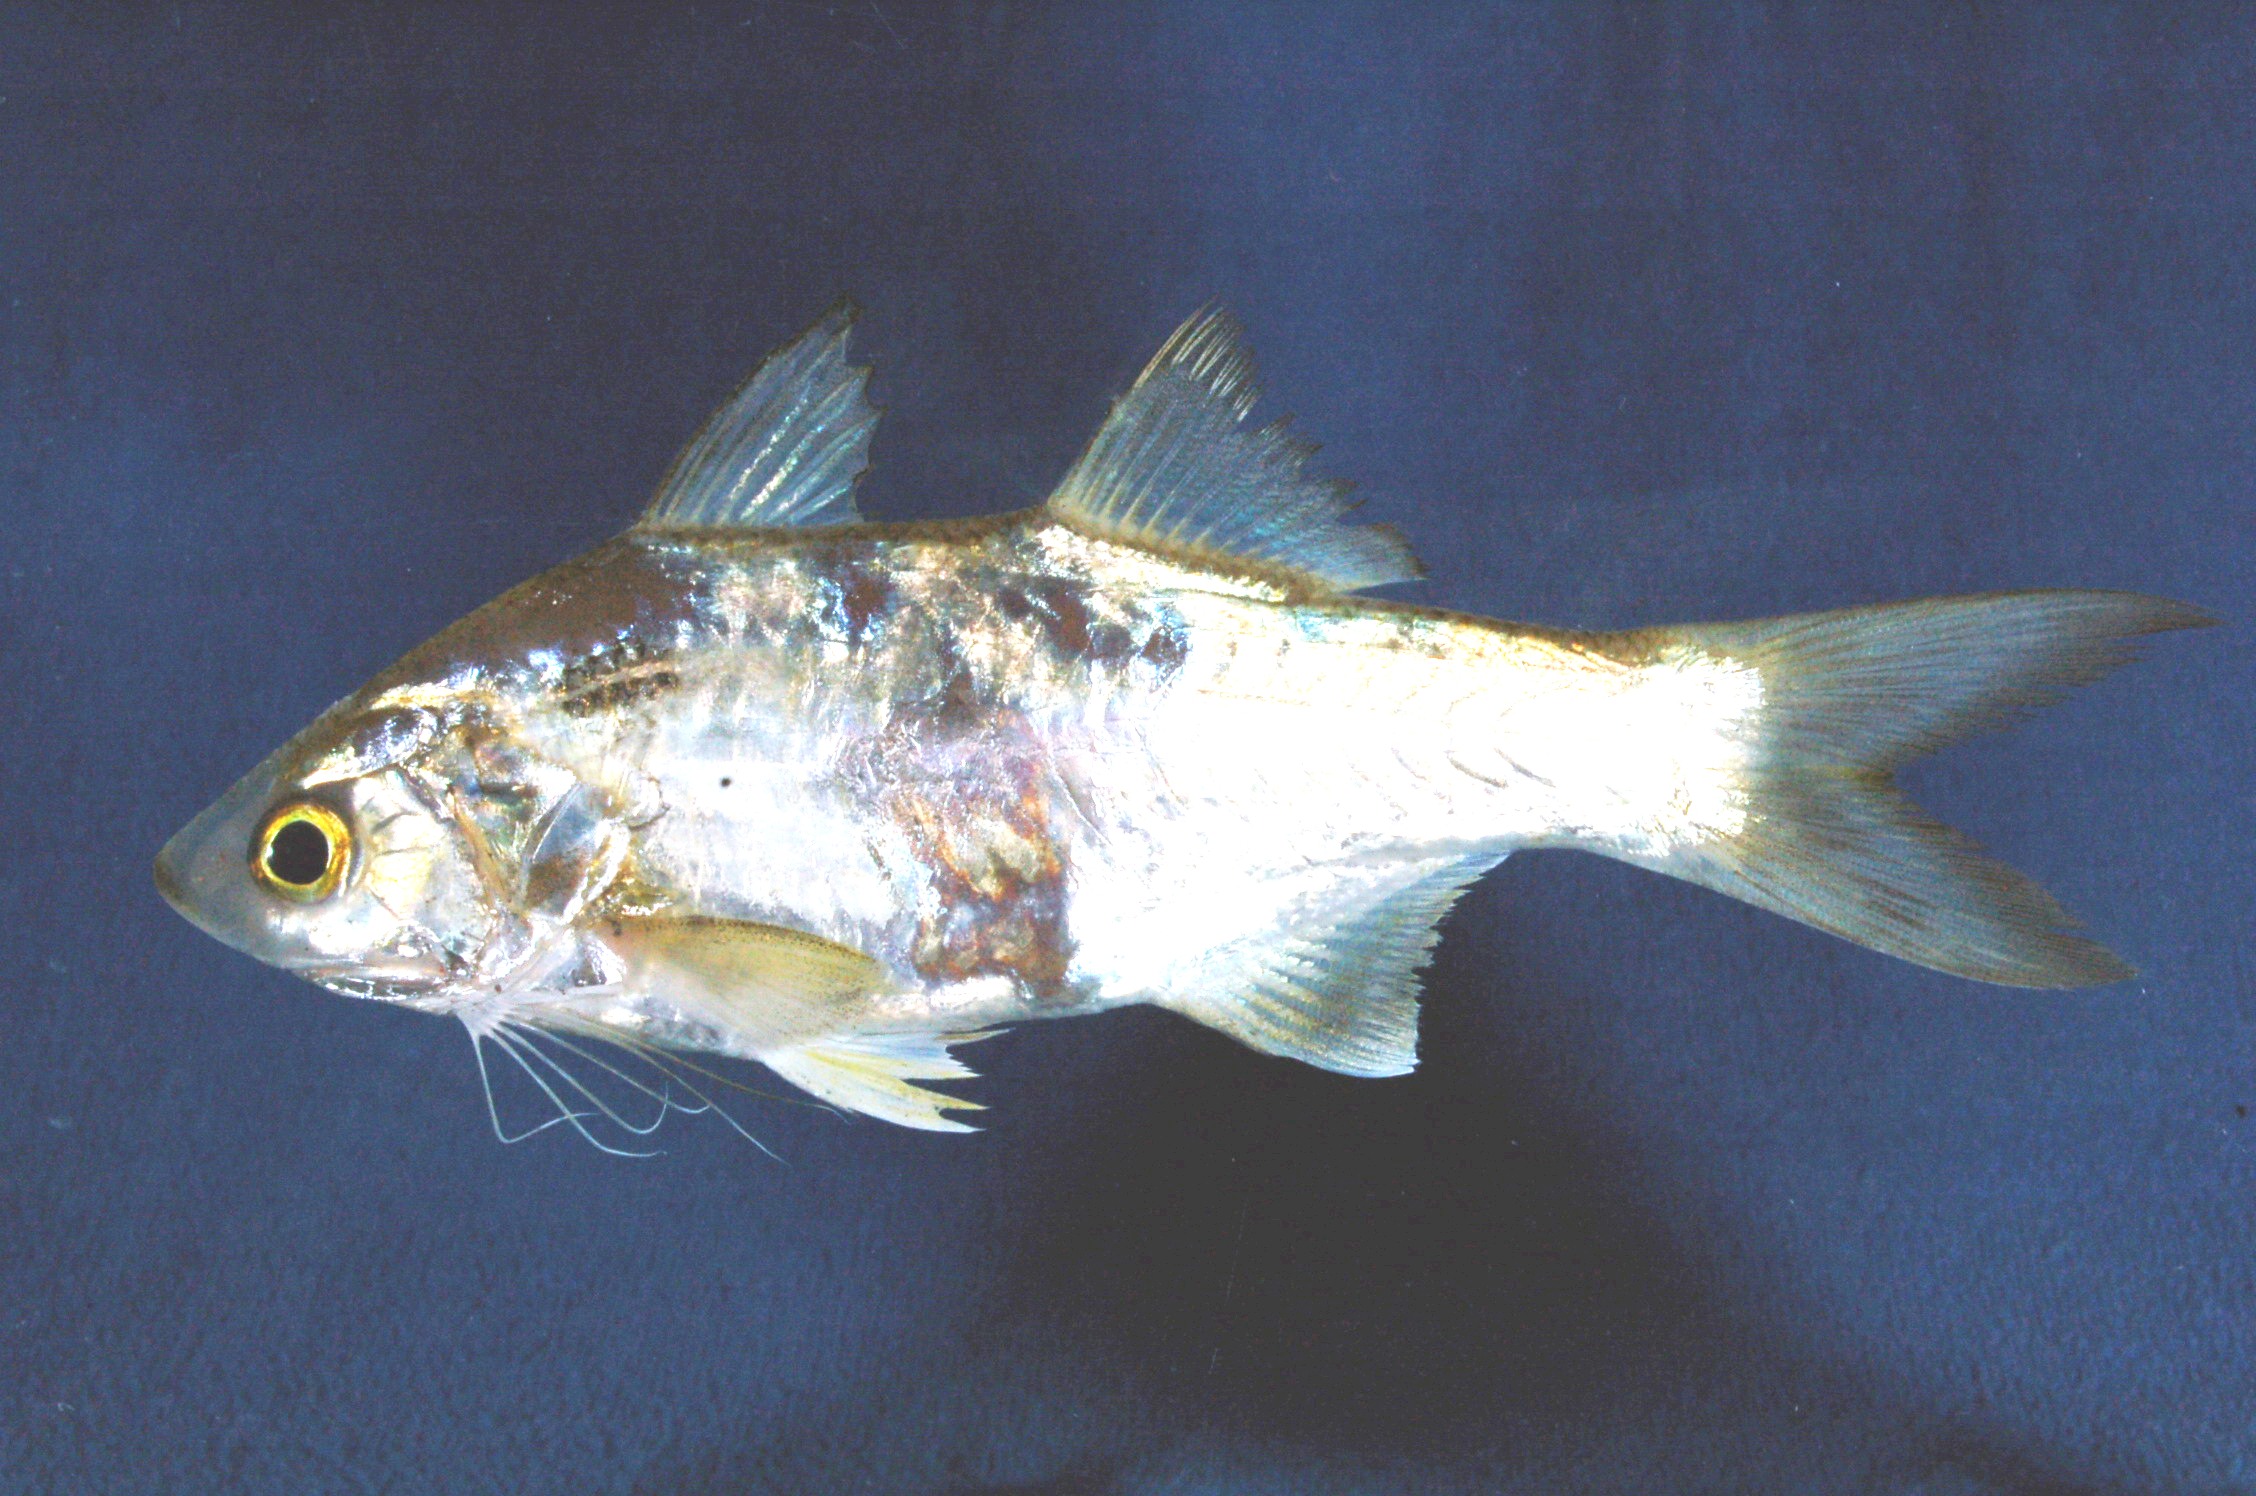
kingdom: Animalia
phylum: Chordata
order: Perciformes
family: Polynemidae
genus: Polydactylus
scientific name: Polydactylus malagasyensis
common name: African blackspot threadfin
